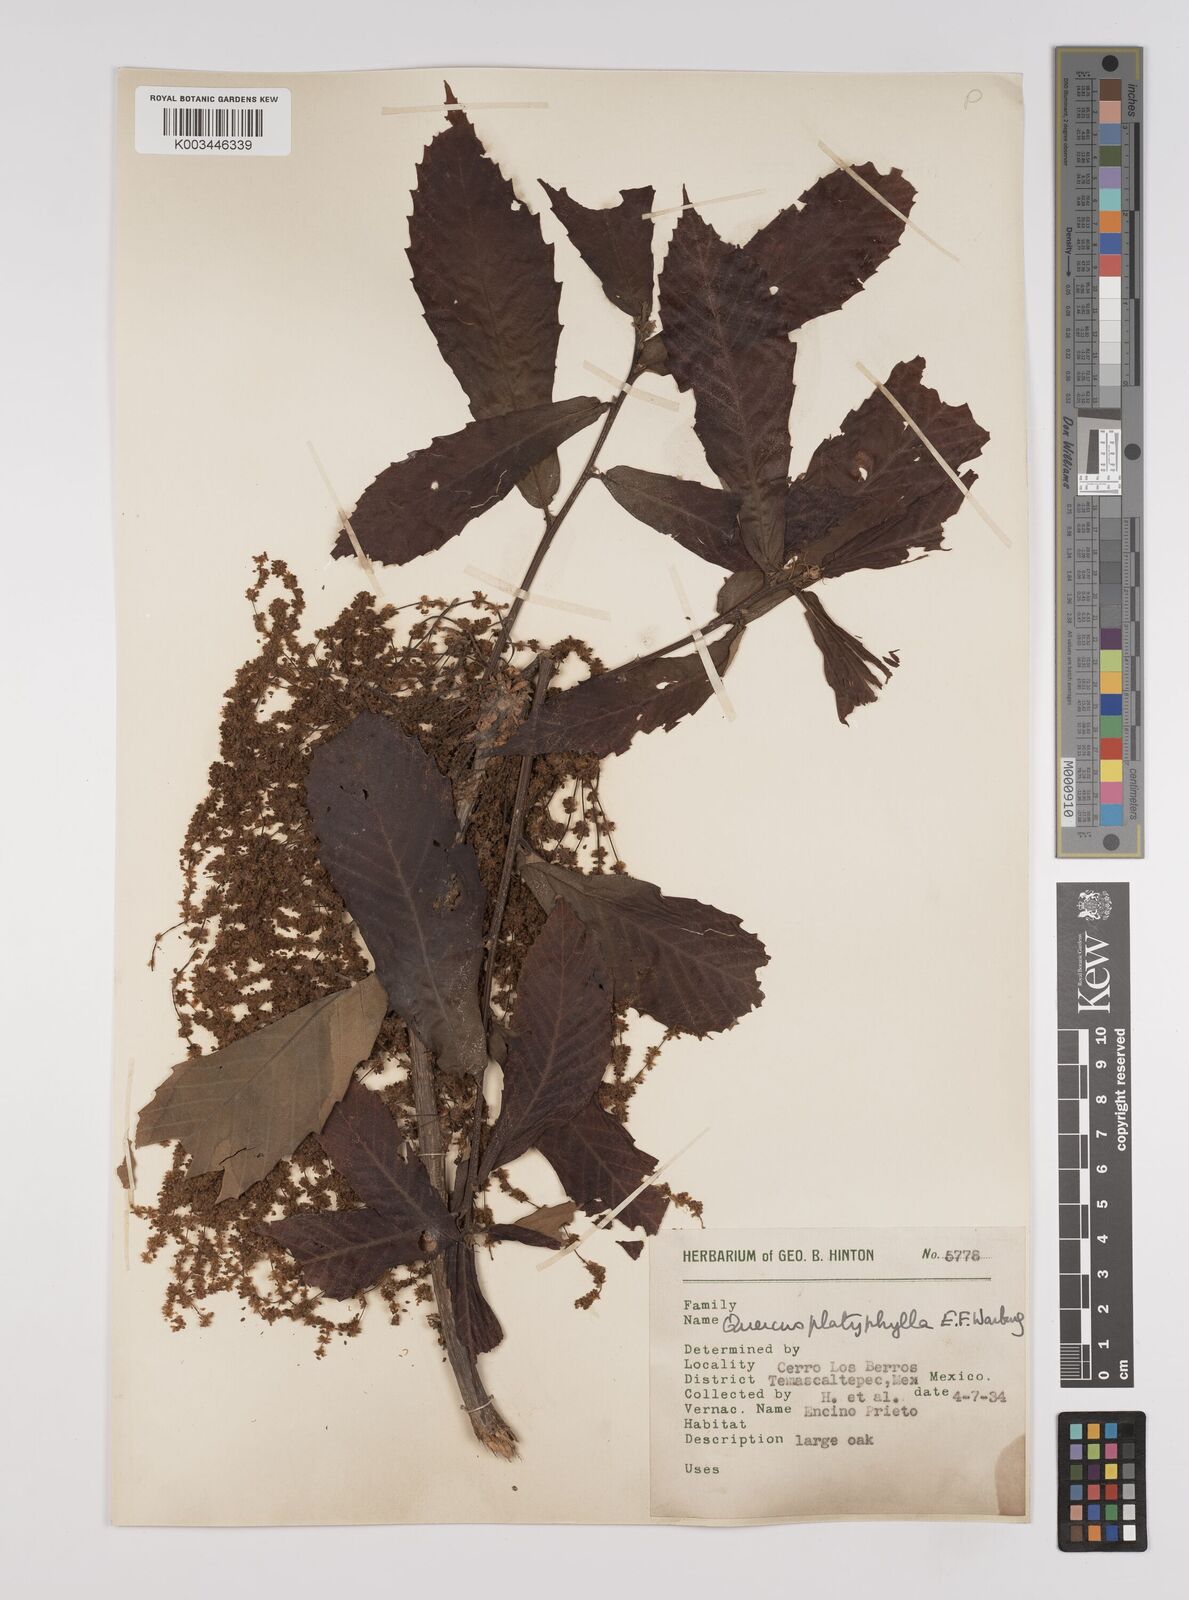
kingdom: Plantae
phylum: Tracheophyta
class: Magnoliopsida
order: Fagales
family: Fagaceae
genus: Quercus
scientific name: Quercus
